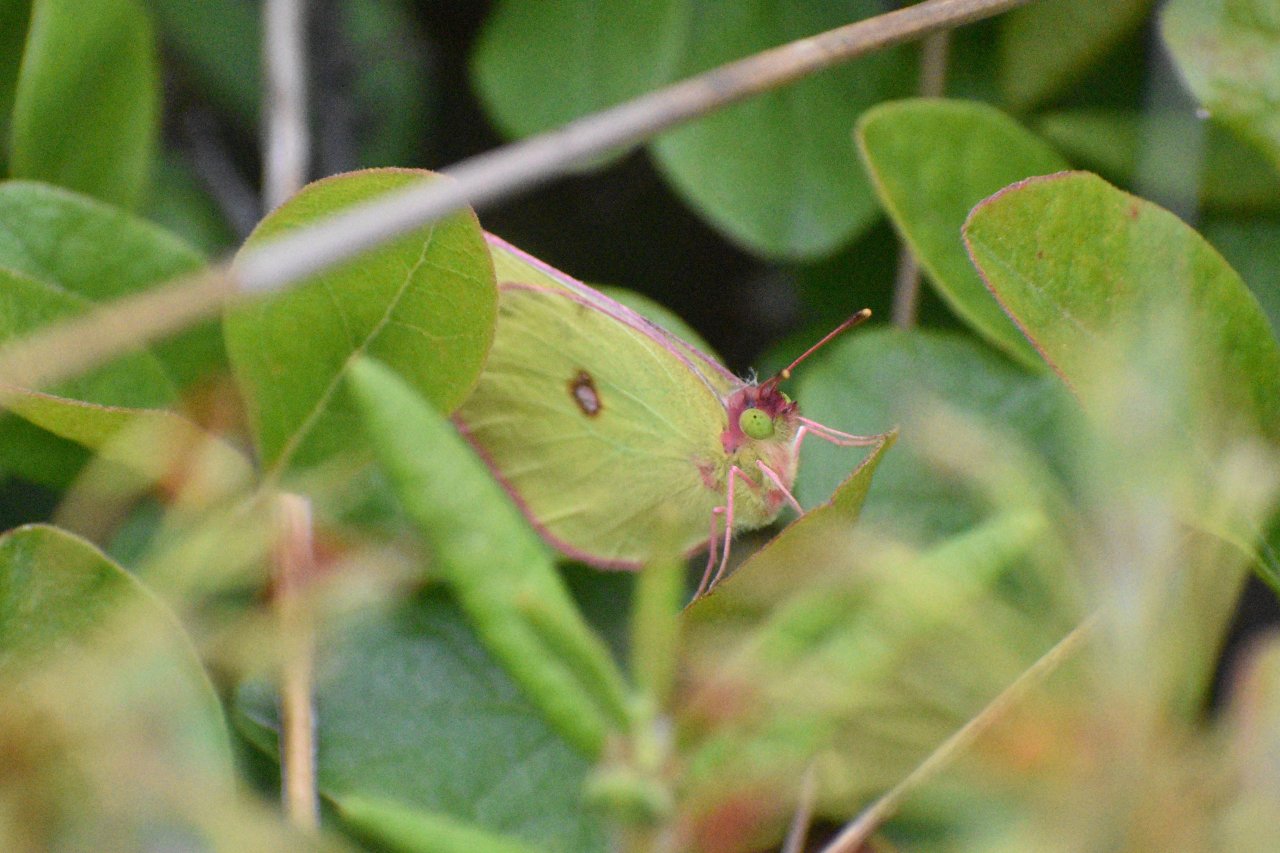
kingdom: Animalia
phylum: Arthropoda
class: Insecta
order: Lepidoptera
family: Pieridae
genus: Colias
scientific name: Colias interior
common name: Pink-edged Sulphur
